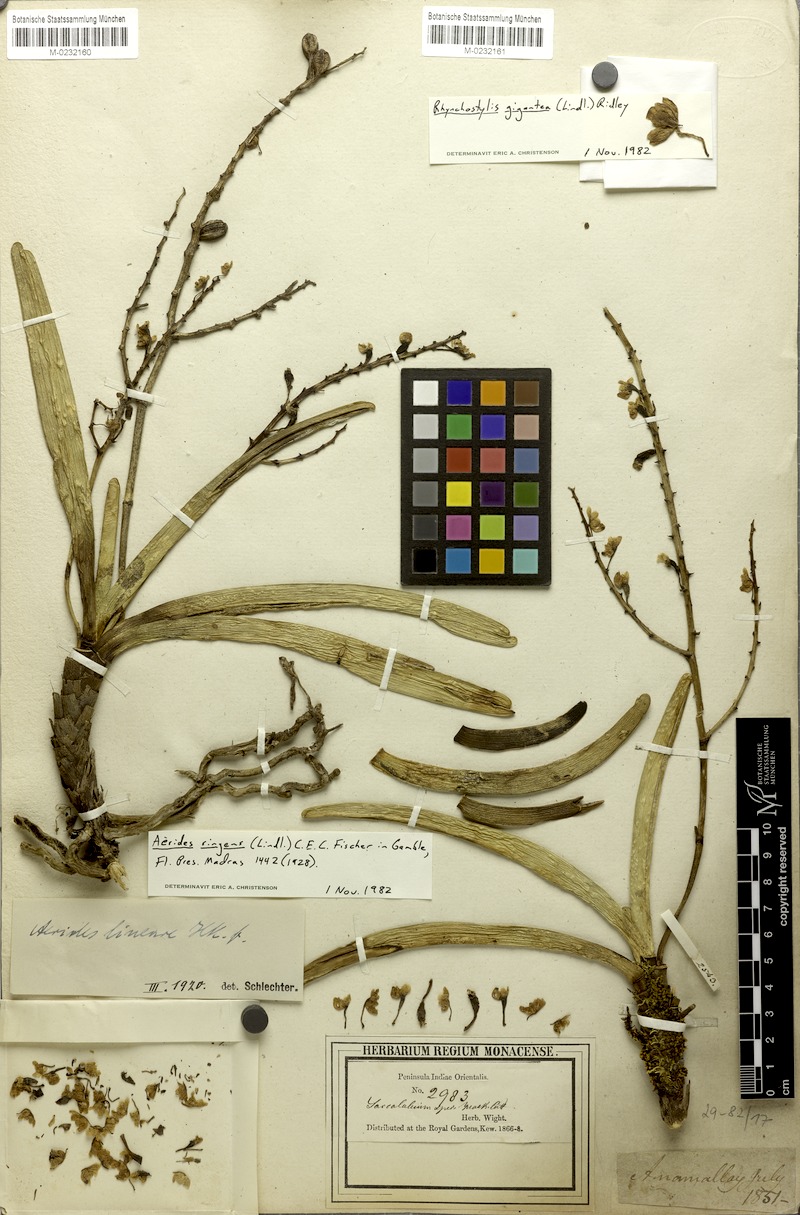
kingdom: Plantae
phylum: Tracheophyta
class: Liliopsida
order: Asparagales
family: Orchidaceae
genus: Aerides
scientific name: Aerides ringens
